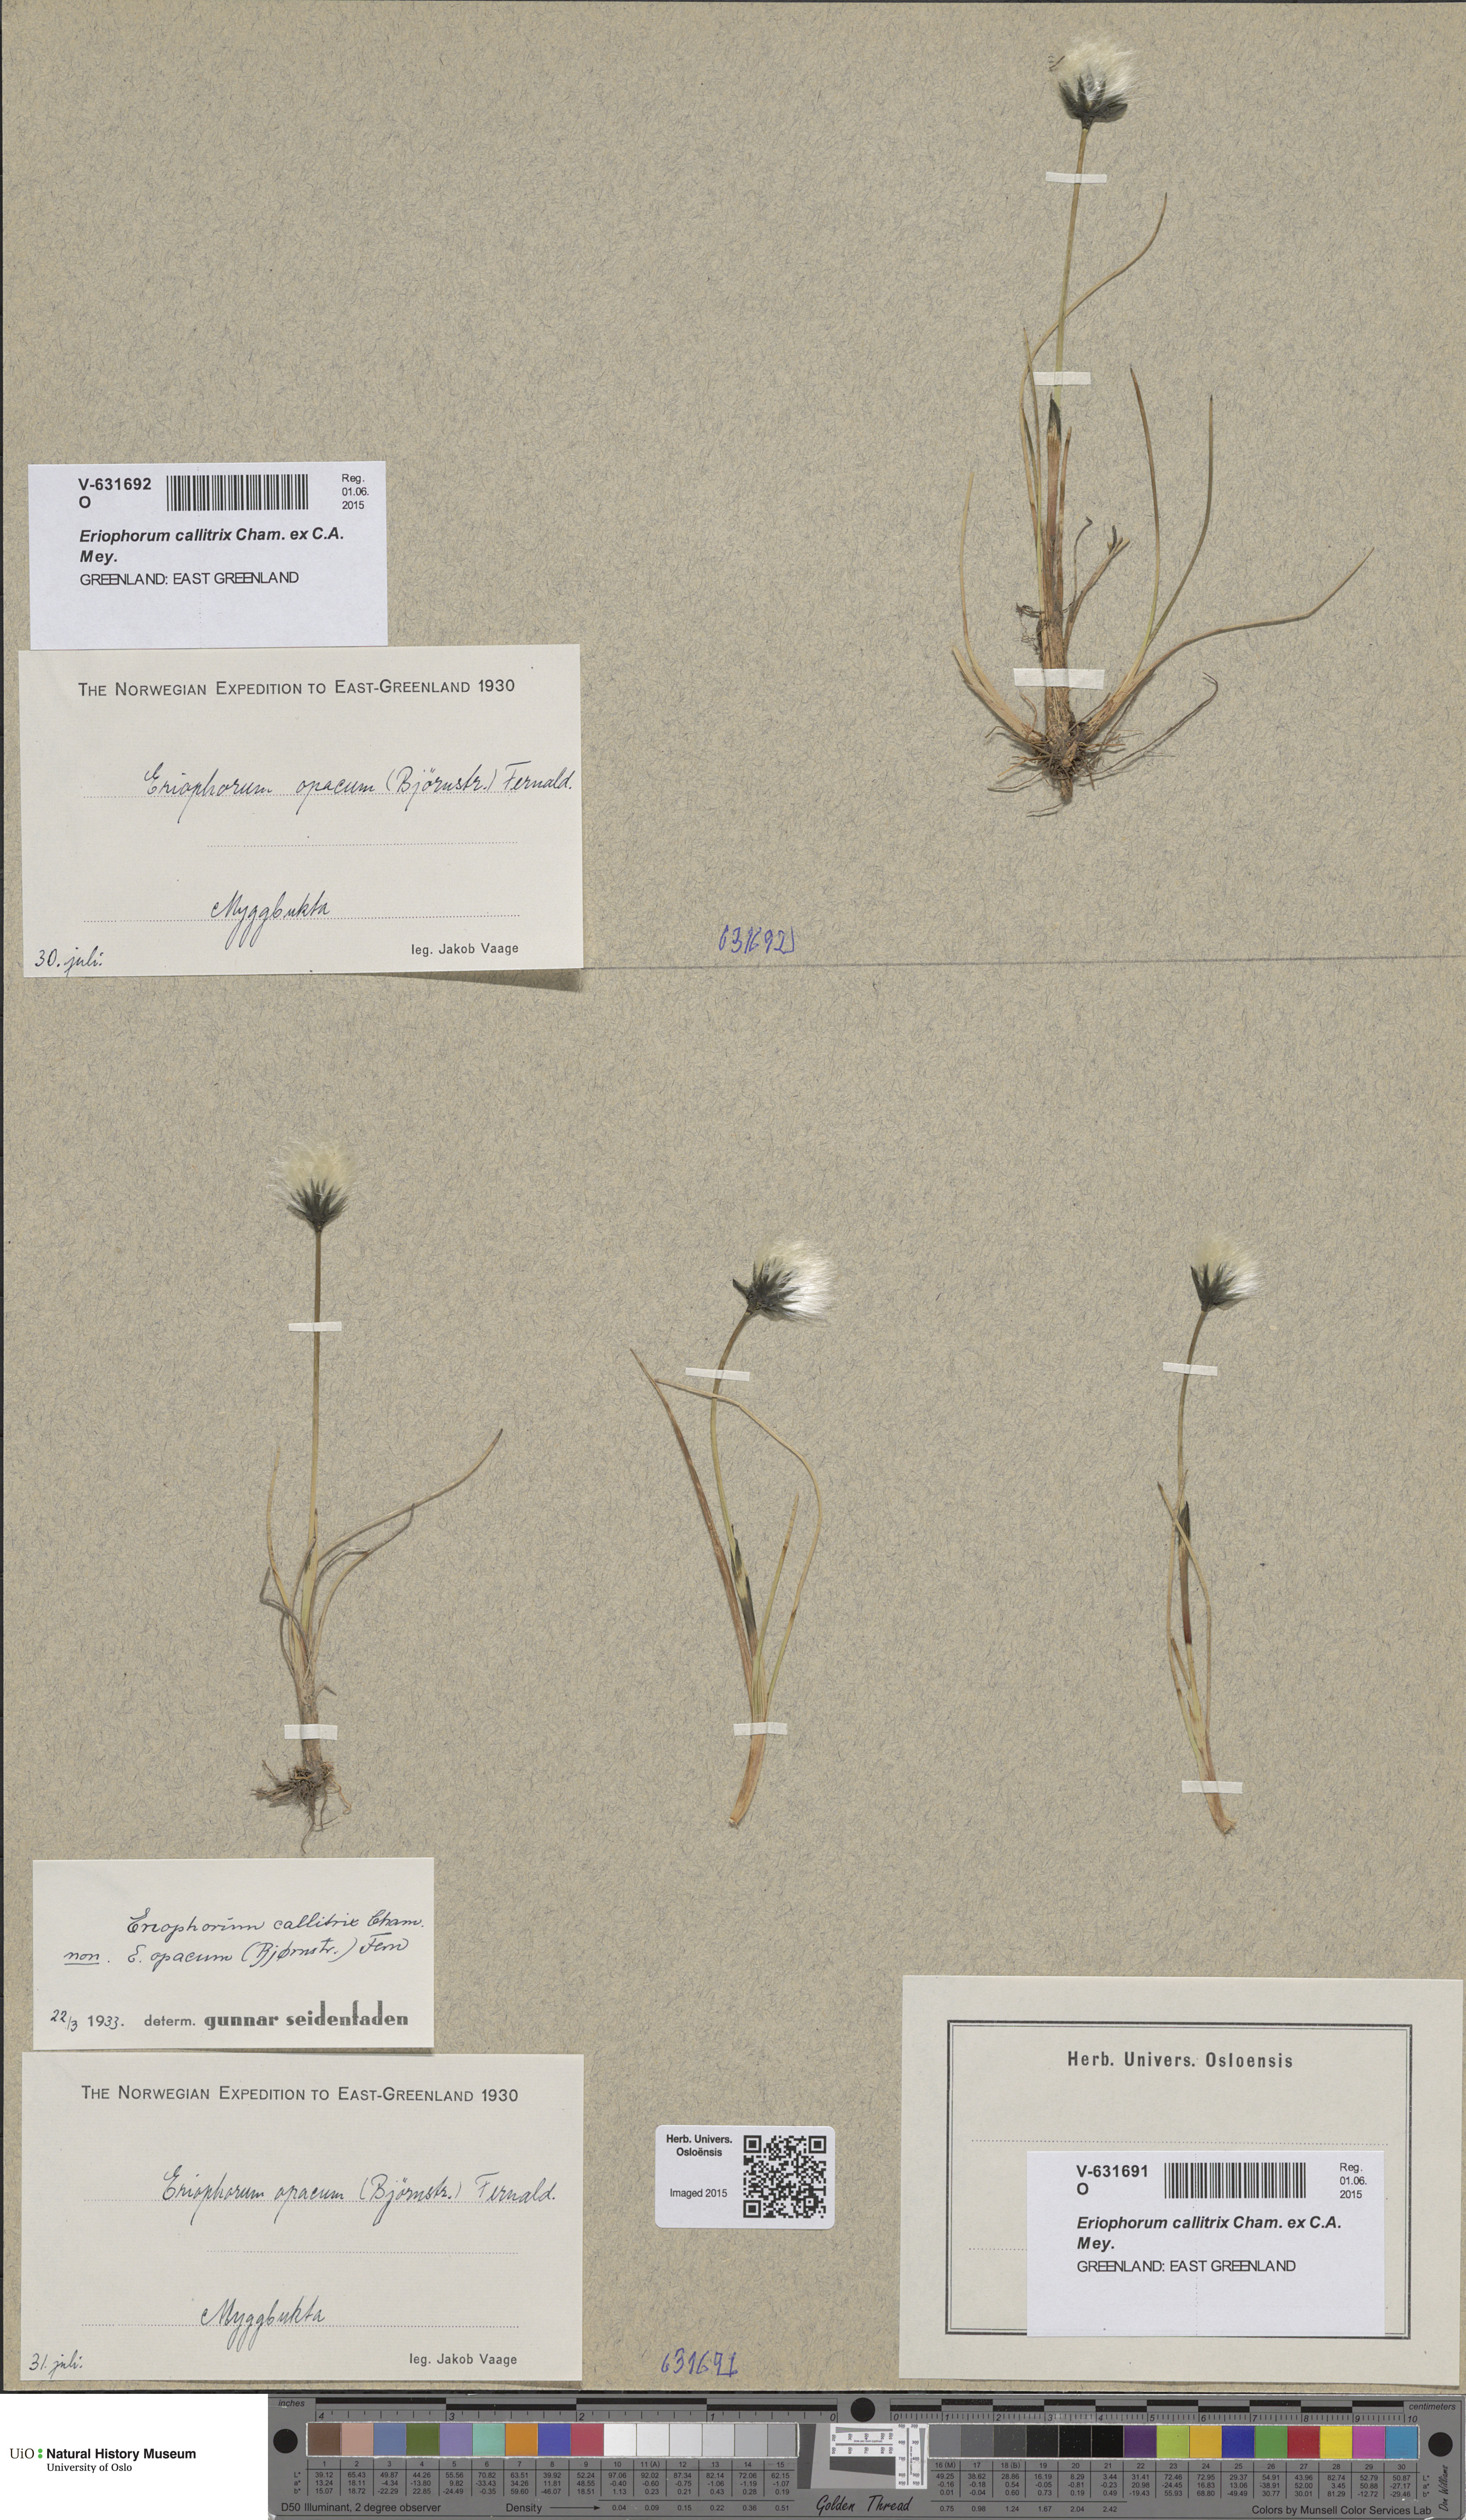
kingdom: Plantae
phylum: Tracheophyta
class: Liliopsida
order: Poales
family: Cyperaceae
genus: Eriophorum
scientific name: Eriophorum callitrix
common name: Arctic cottongrass
